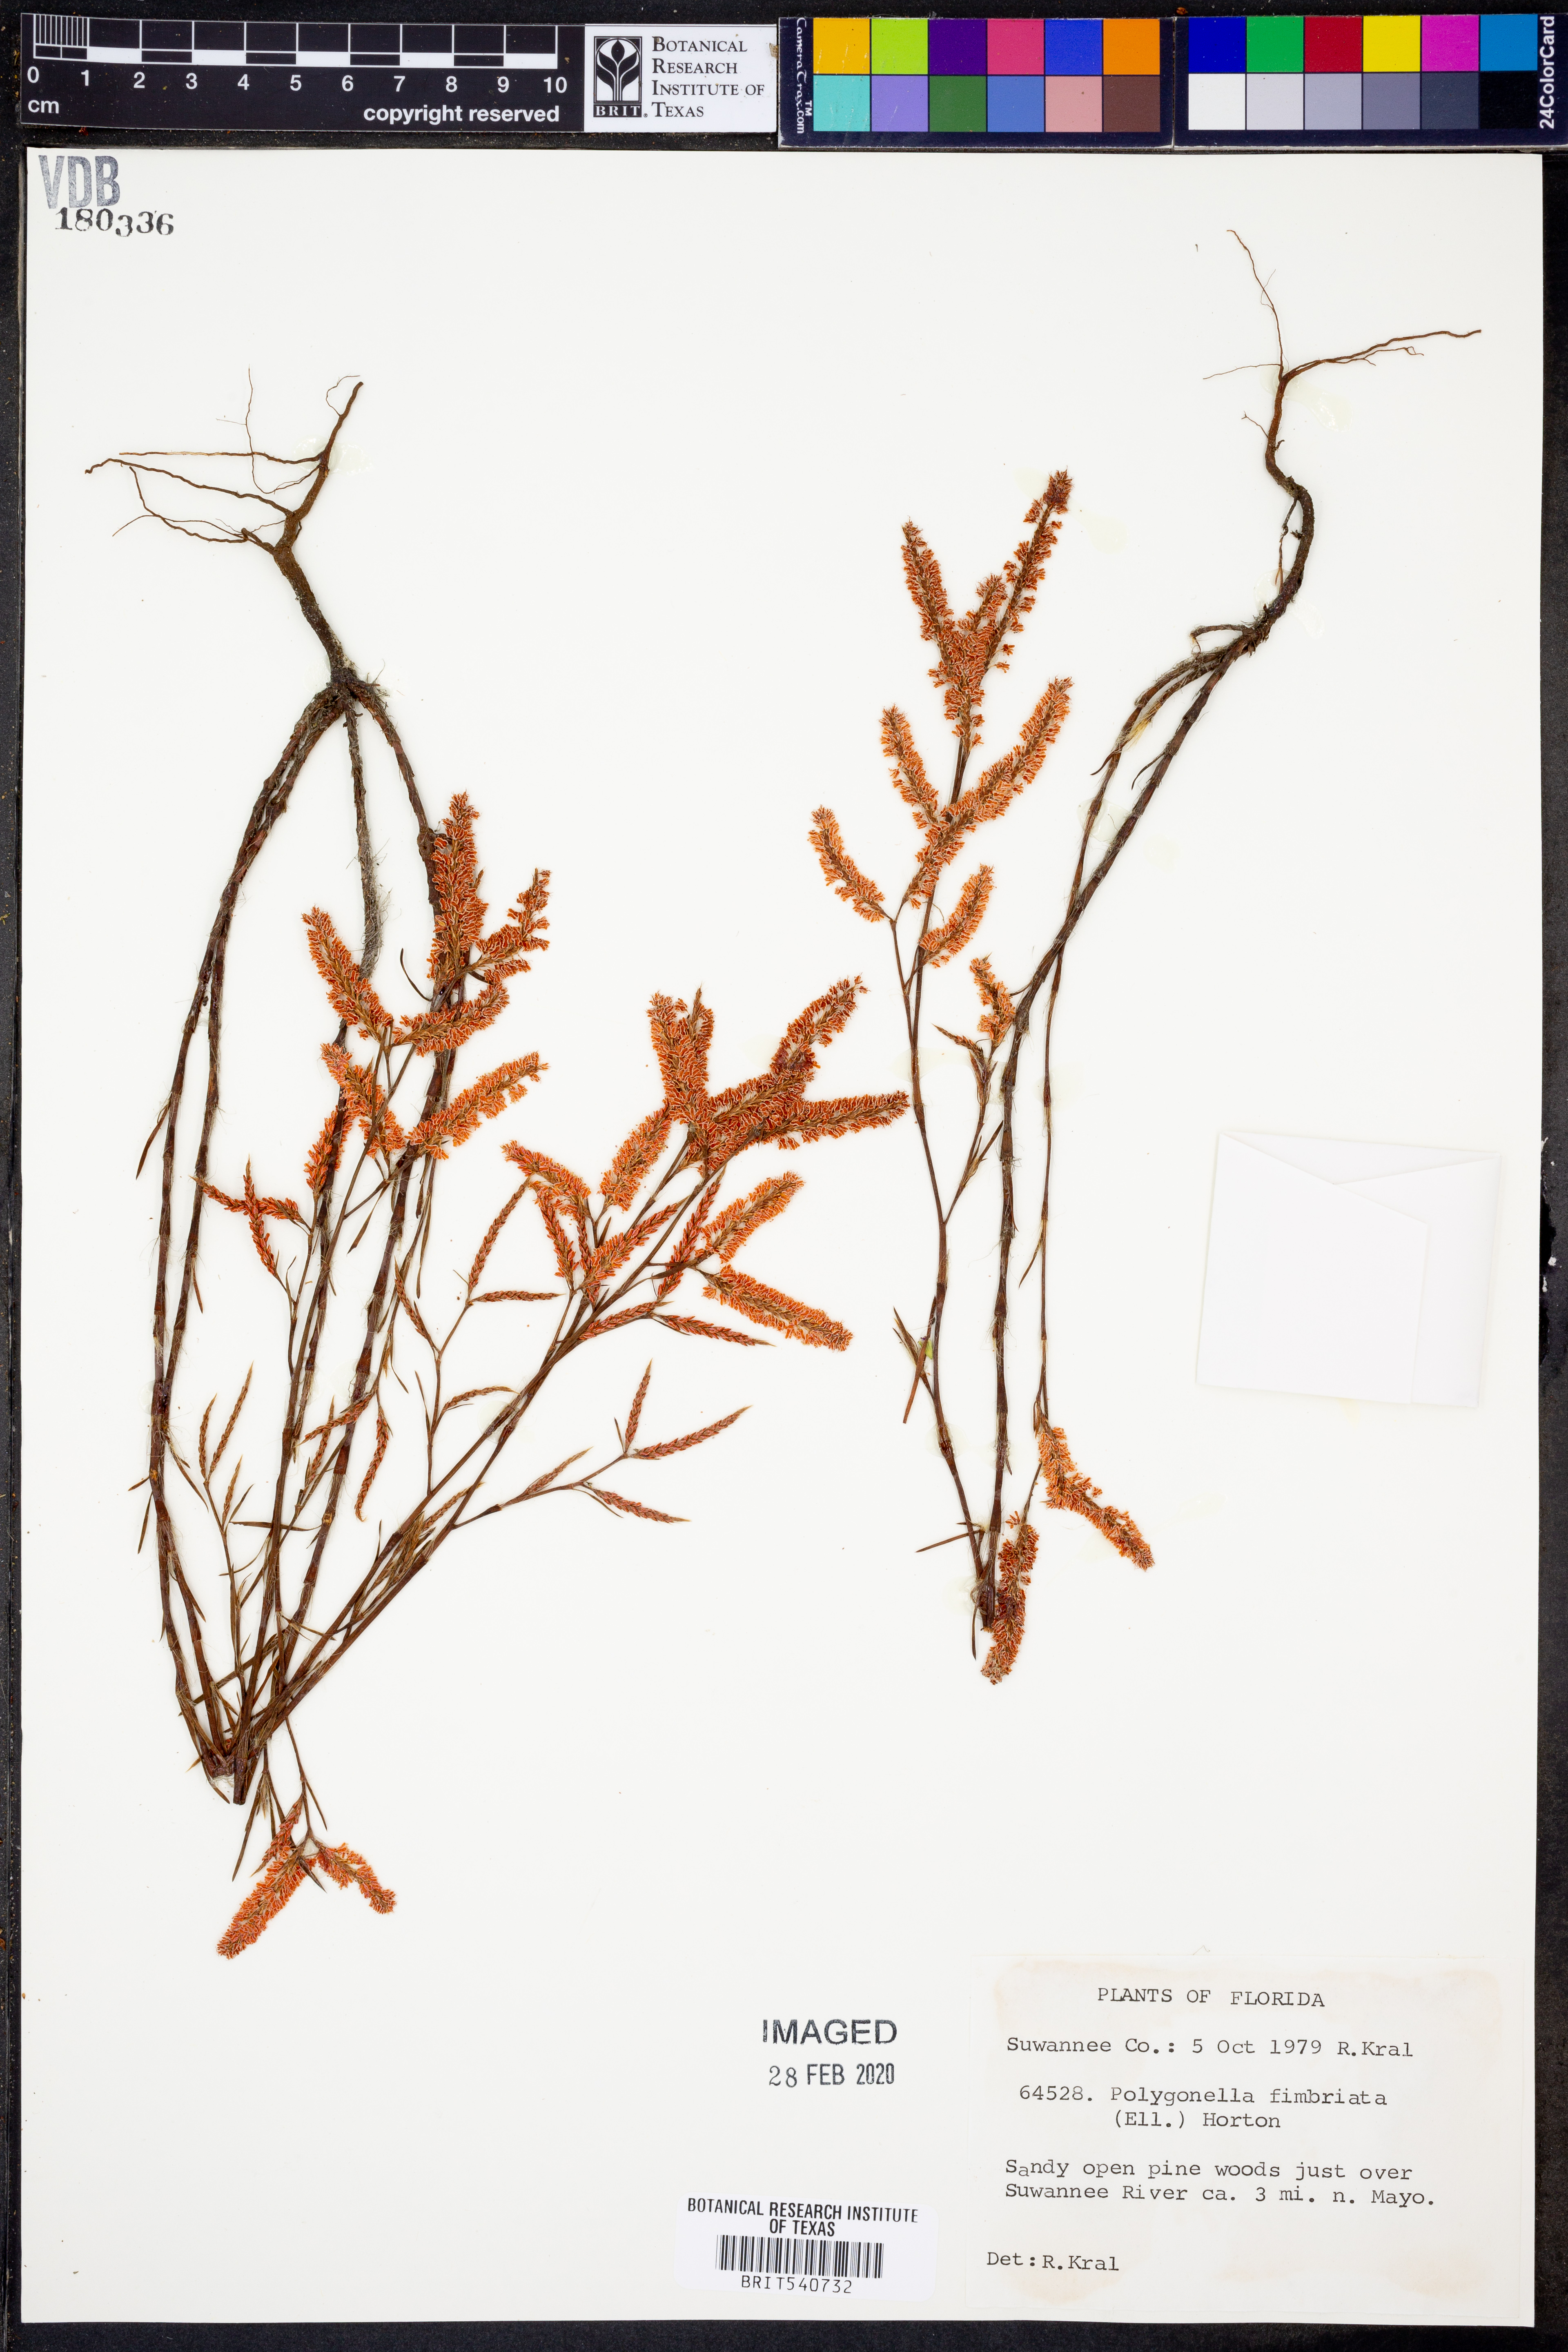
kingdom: Plantae
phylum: Tracheophyta
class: Magnoliopsida
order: Caryophyllales
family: Polygonaceae
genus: Polygonella
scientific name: Polygonella fimbriata
